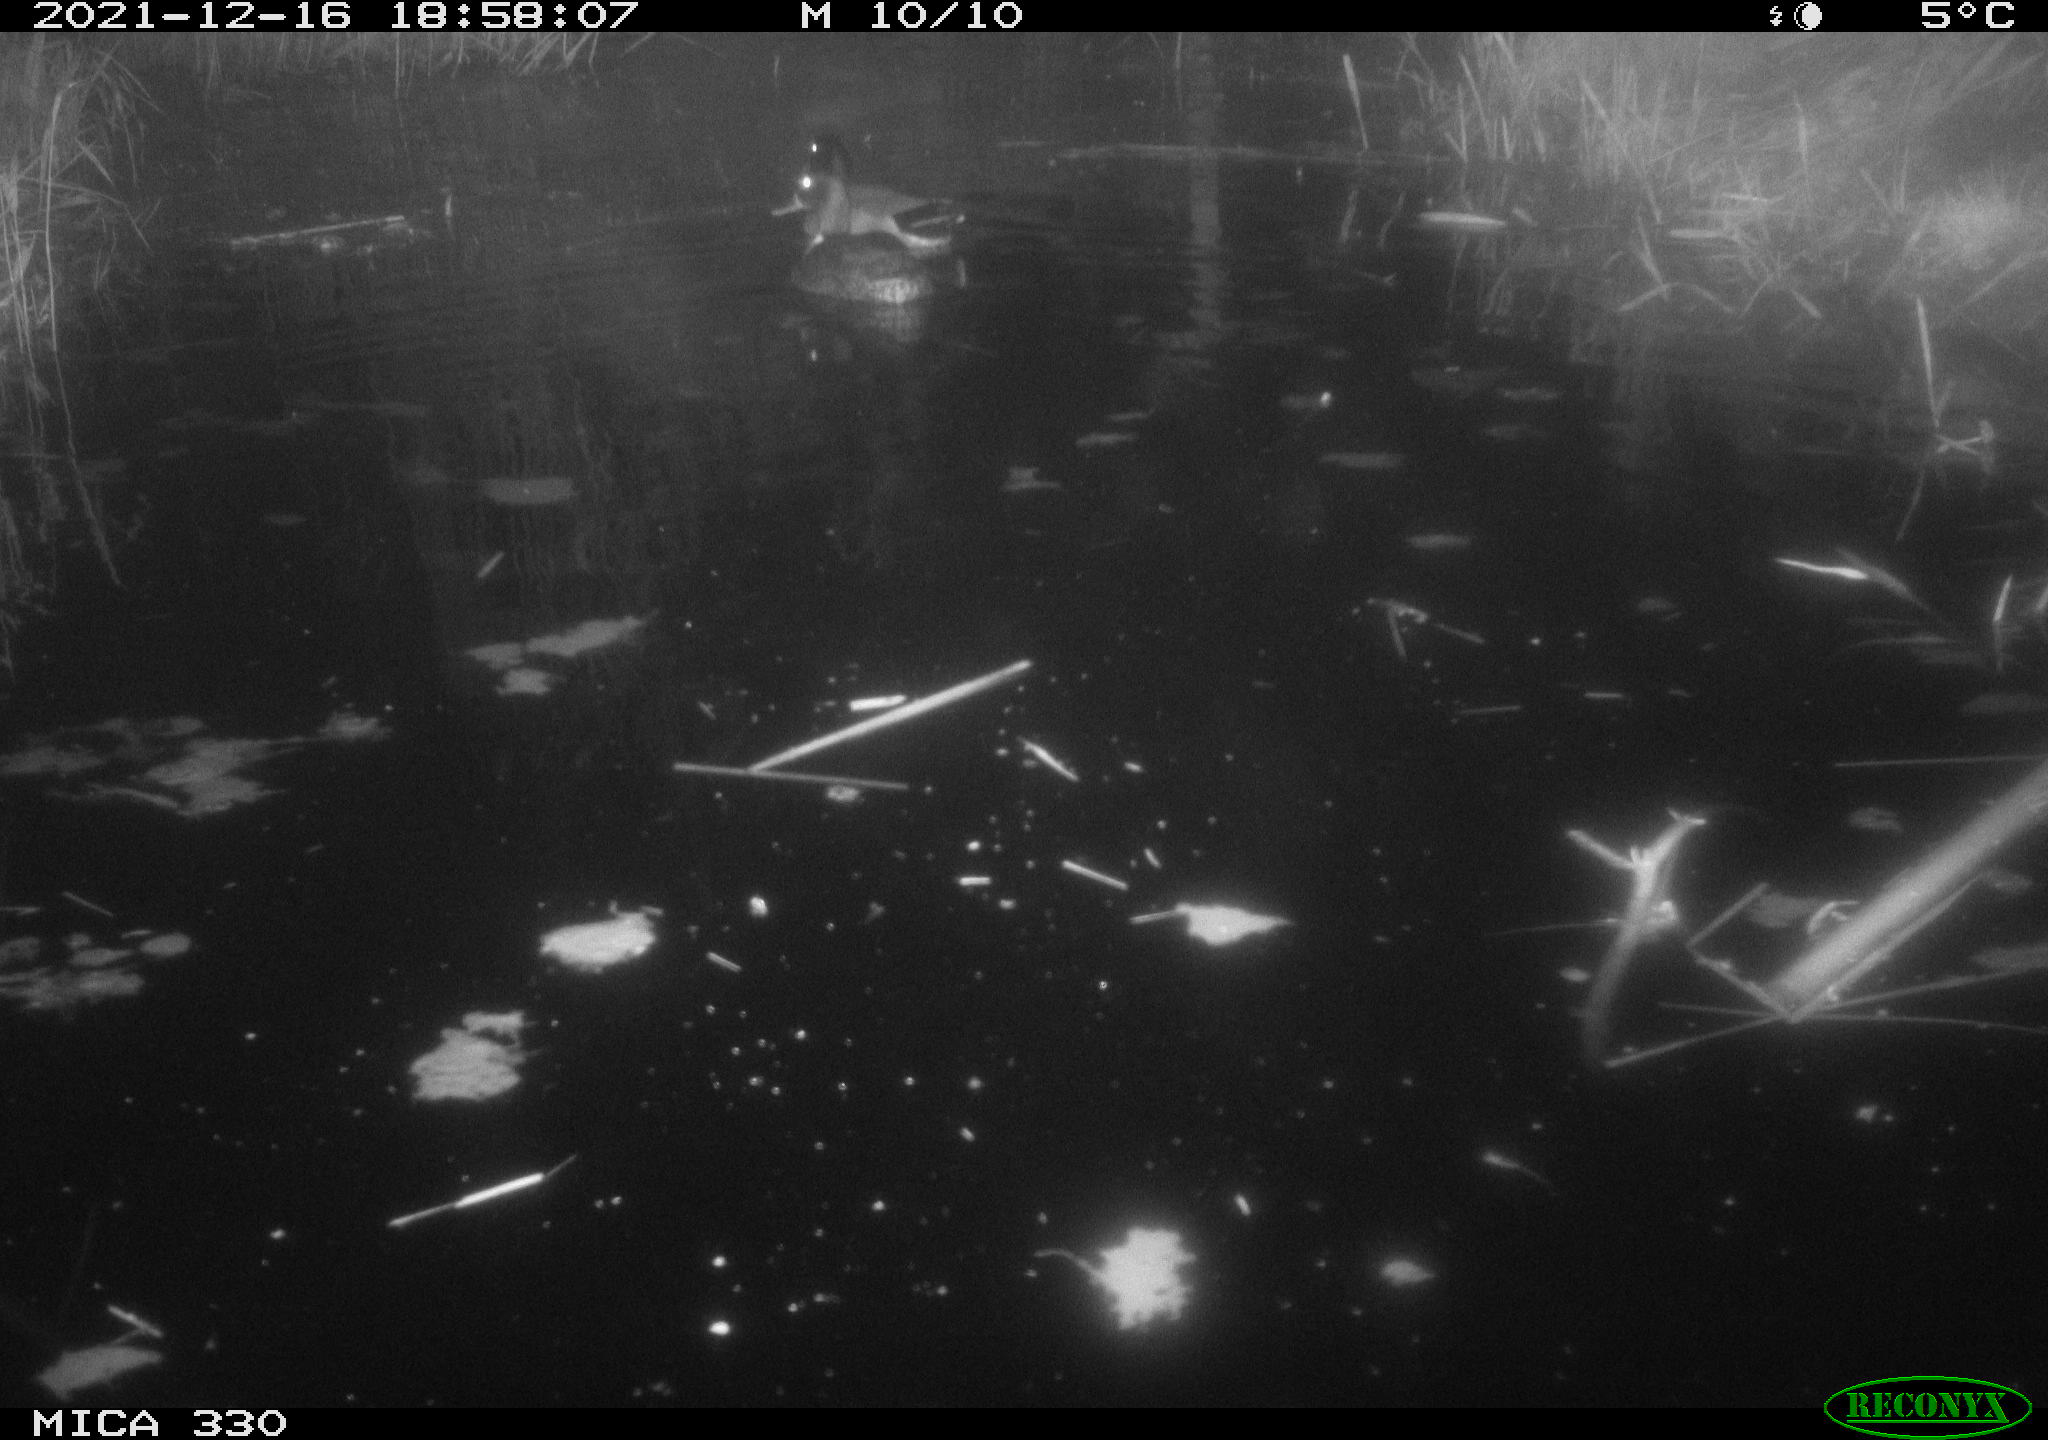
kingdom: Animalia
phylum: Chordata
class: Aves
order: Anseriformes
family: Anatidae
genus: Anas
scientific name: Anas platyrhynchos
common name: Mallard
